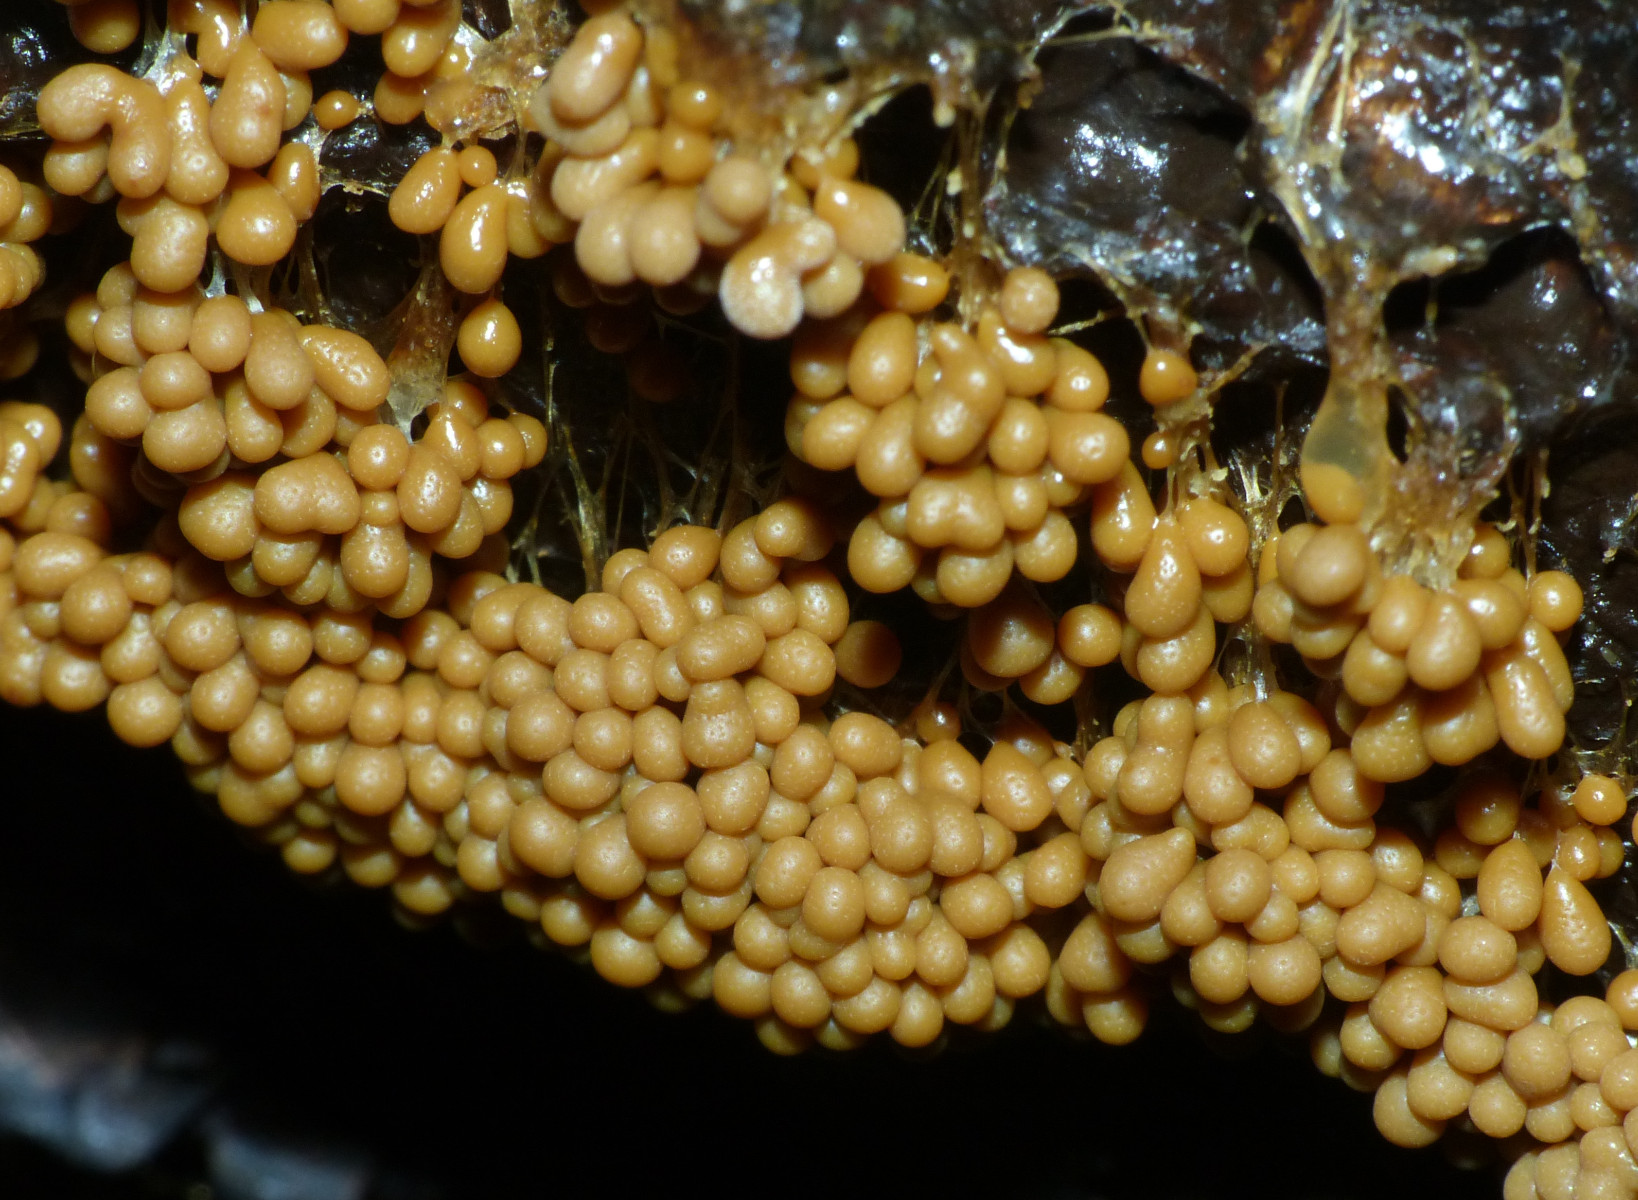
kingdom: Protozoa
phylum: Mycetozoa
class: Myxomycetes
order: Physarales
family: Physaraceae
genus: Badhamia
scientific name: Badhamia utricularis
